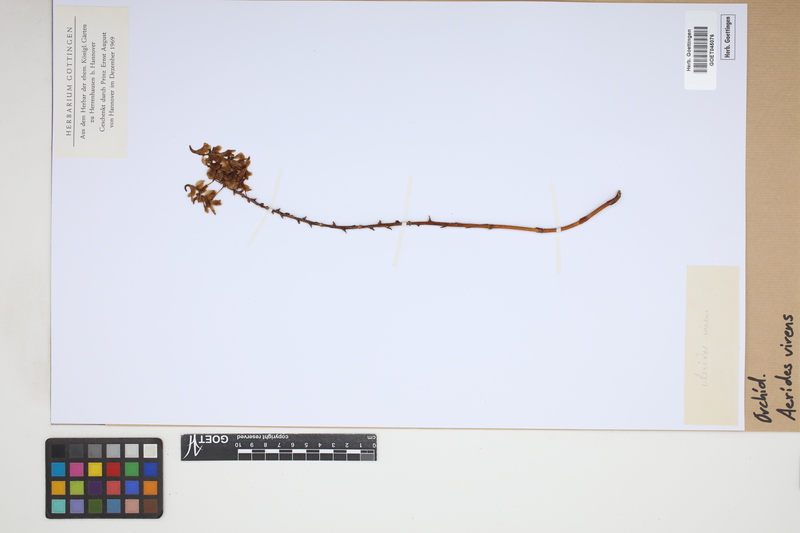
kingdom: Plantae
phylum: Tracheophyta
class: Liliopsida
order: Asparagales
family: Orchidaceae
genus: Aerides
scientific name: Aerides odorata
